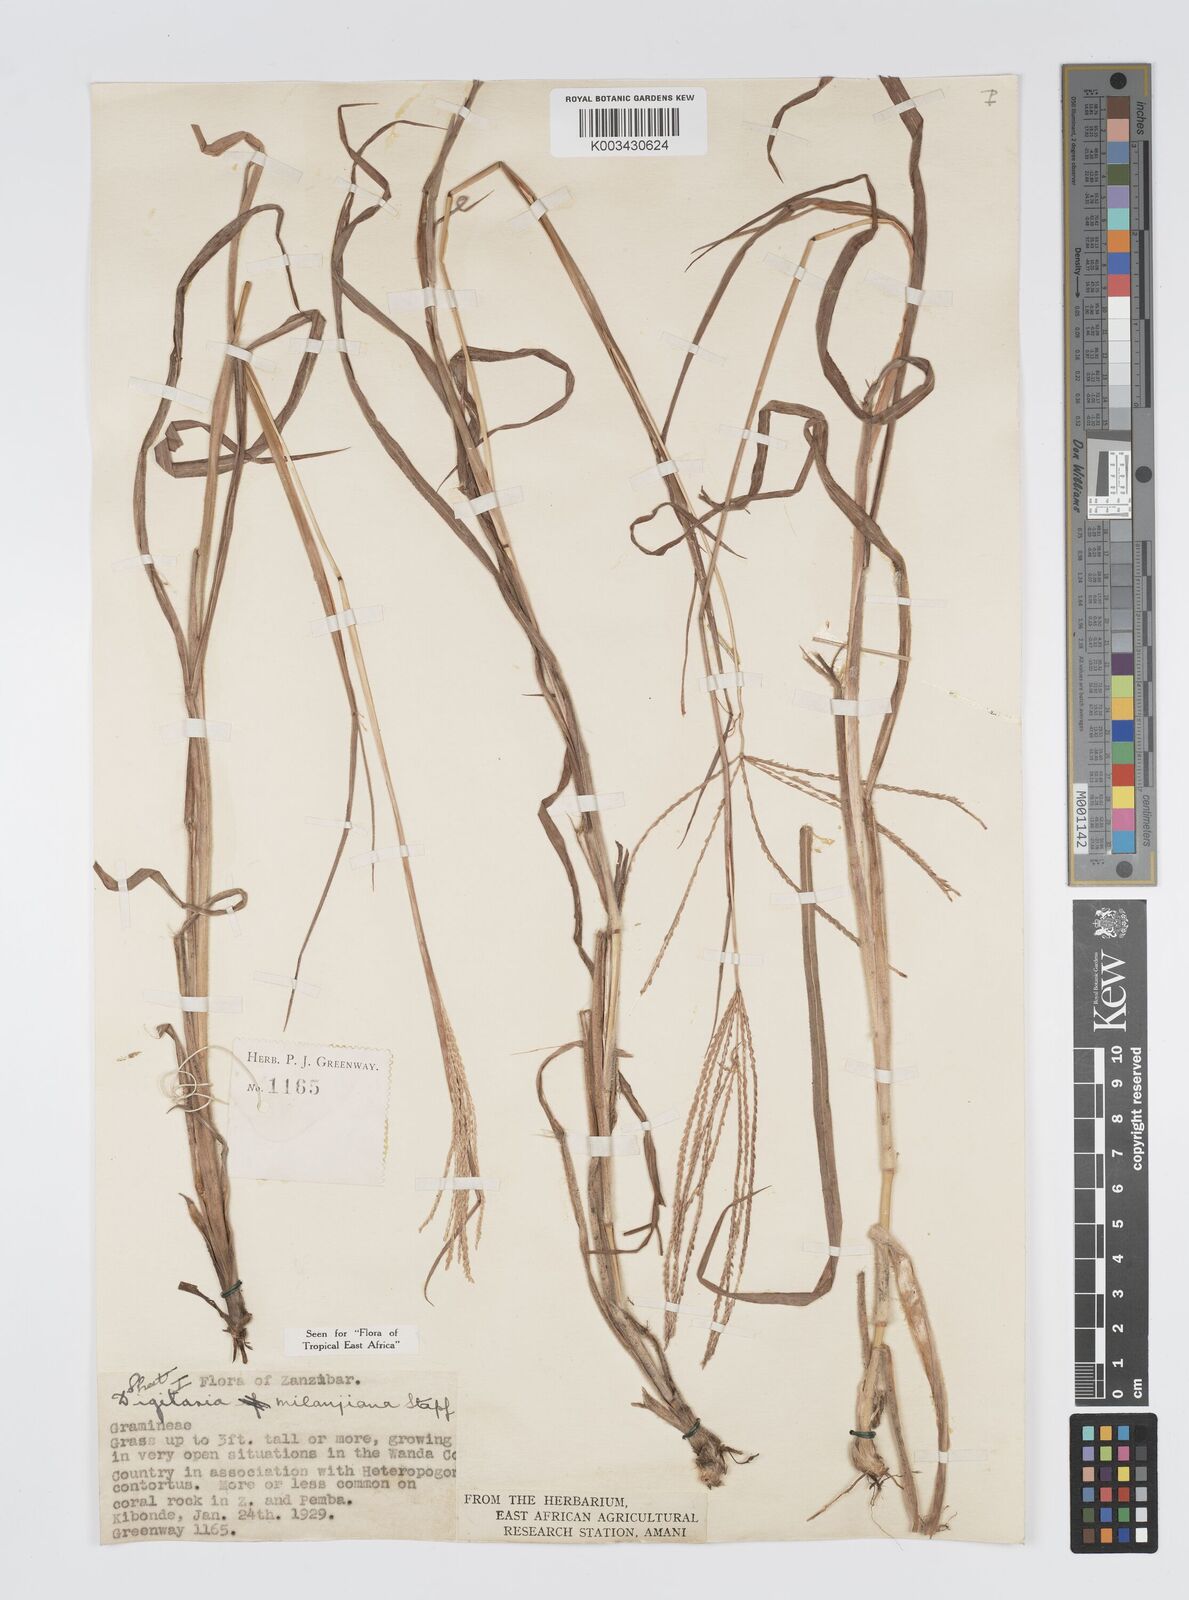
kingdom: Plantae
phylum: Tracheophyta
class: Liliopsida
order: Poales
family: Poaceae
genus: Digitaria
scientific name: Digitaria milanjiana
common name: Madagascar crabgrass
